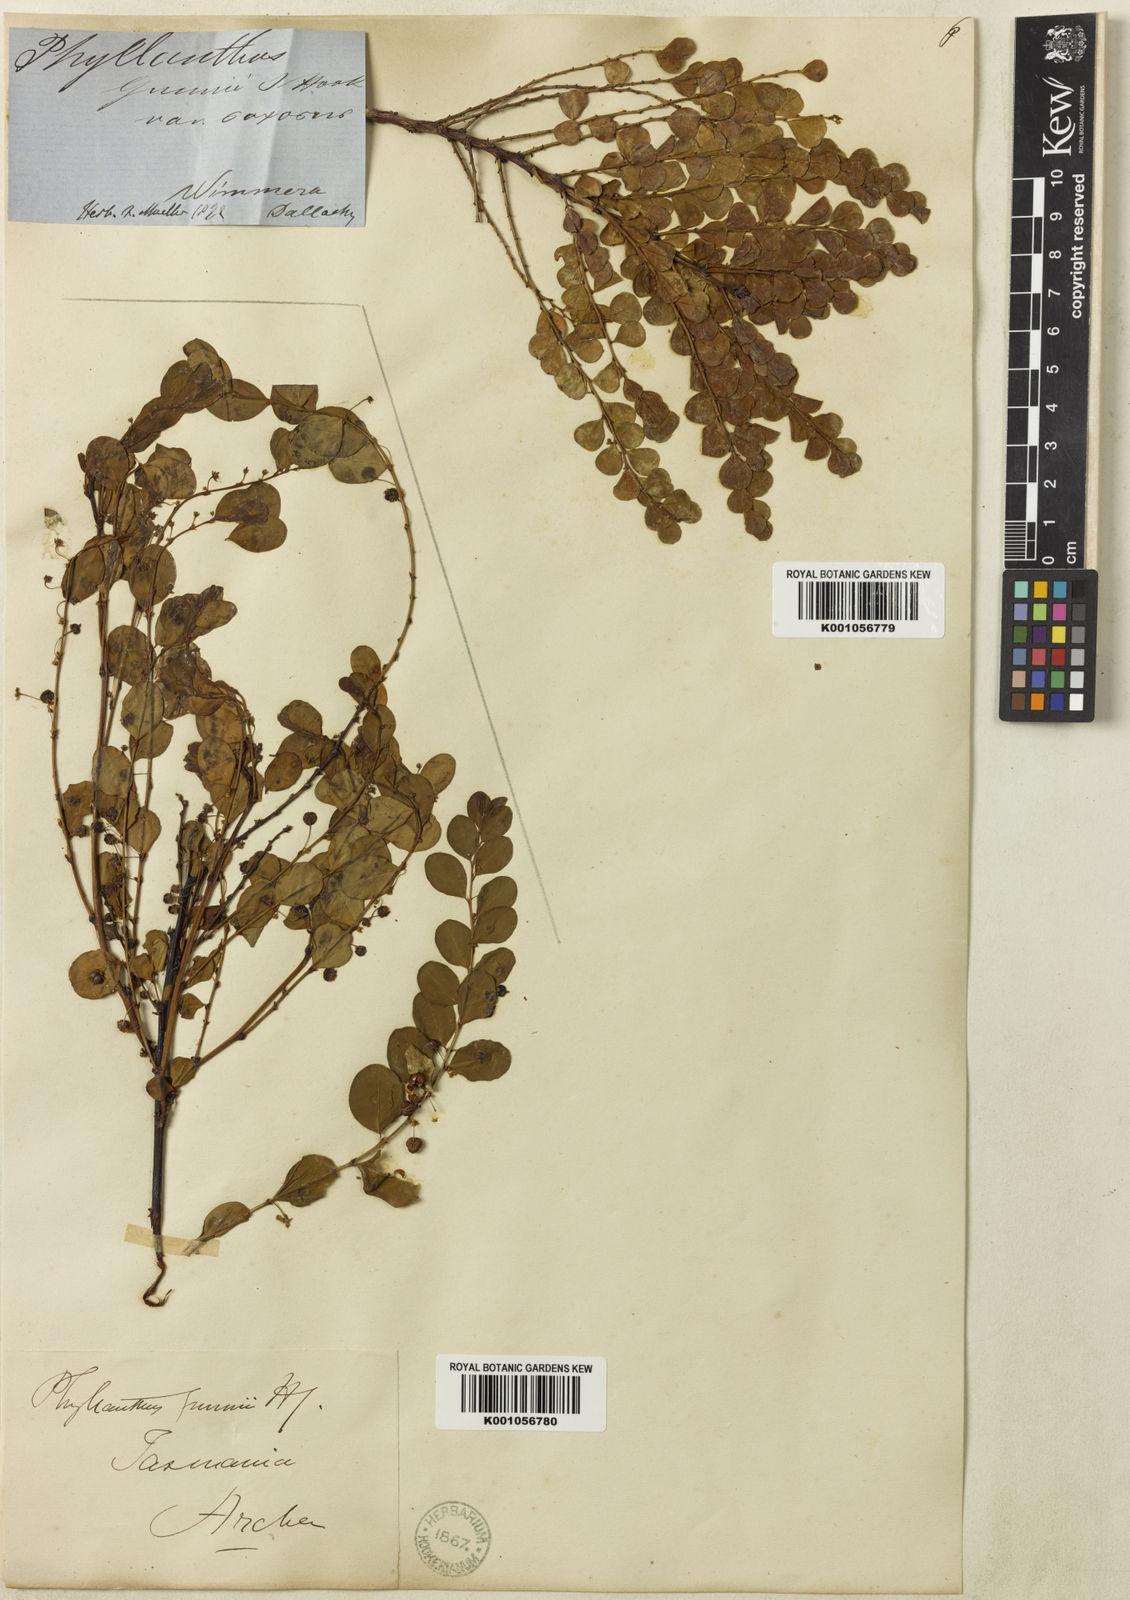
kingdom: Plantae
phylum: Tracheophyta
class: Magnoliopsida
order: Malpighiales
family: Phyllanthaceae
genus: Phyllanthus
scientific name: Phyllanthus gunnii
